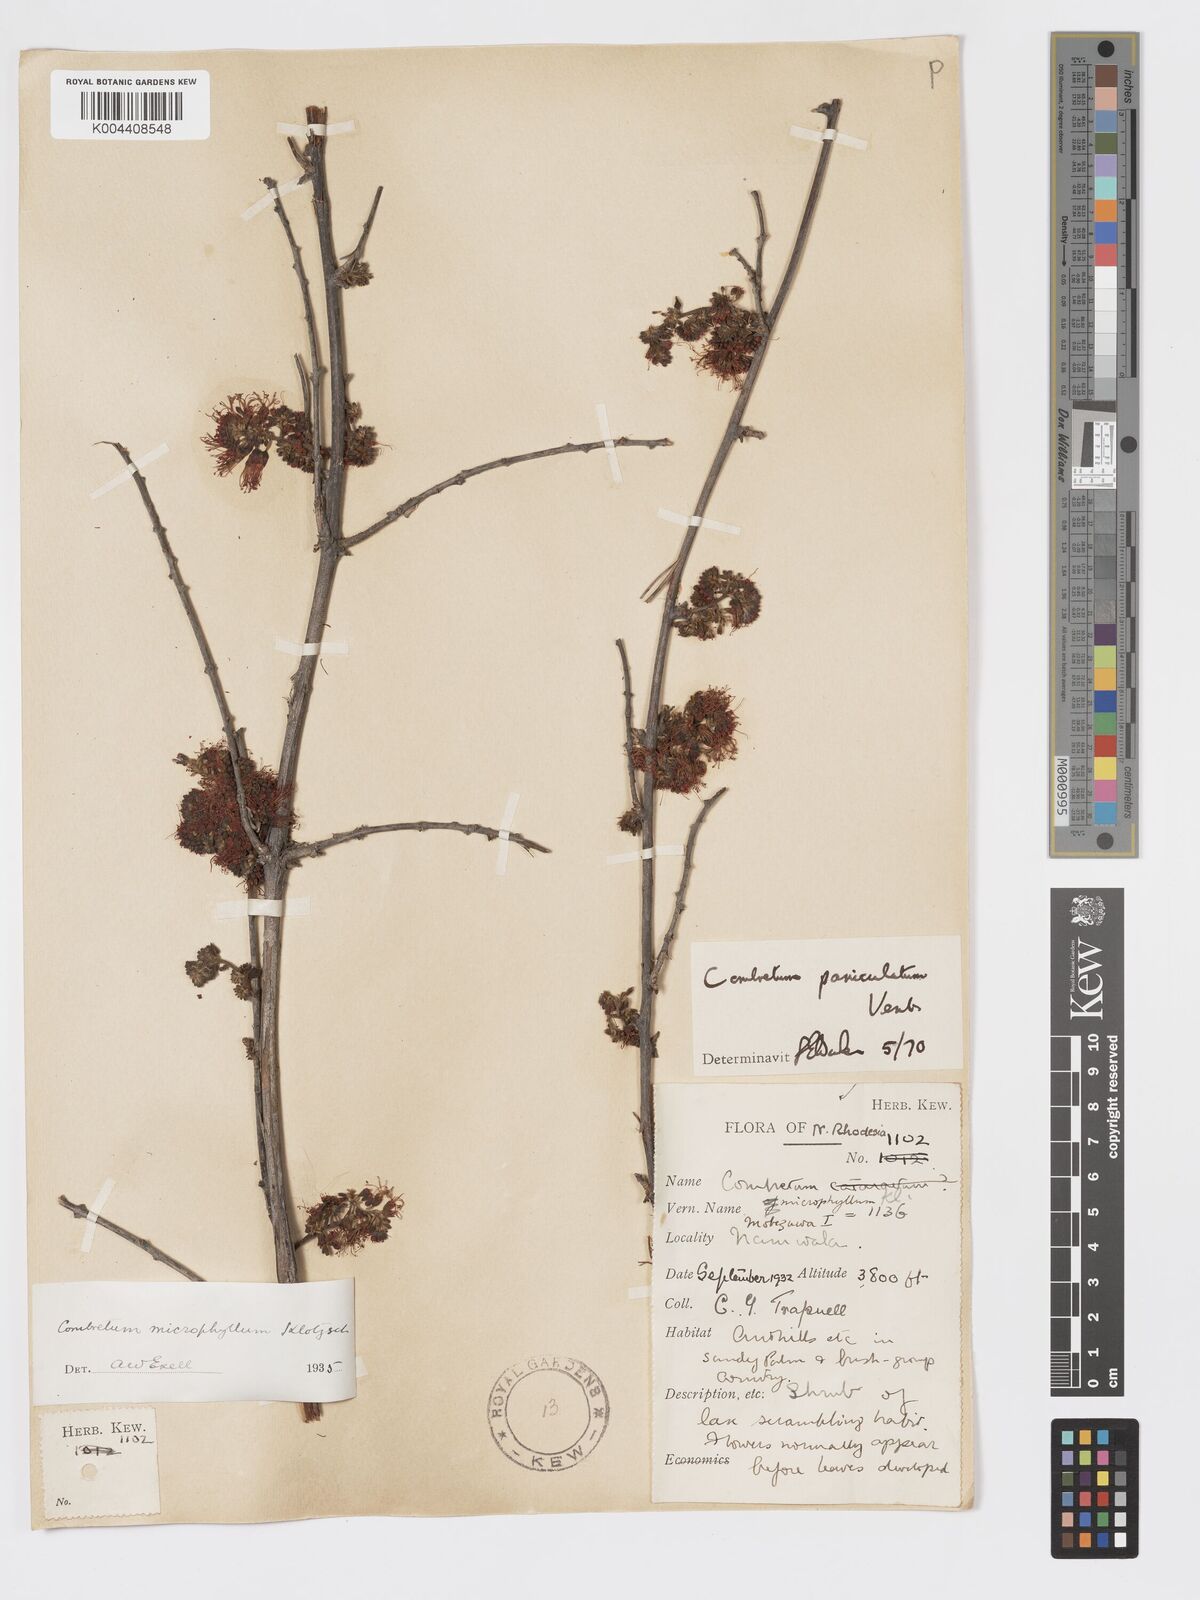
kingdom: Plantae
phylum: Tracheophyta
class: Magnoliopsida
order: Myrtales
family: Combretaceae
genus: Combretum
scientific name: Combretum paniculatum
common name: Fire vine
